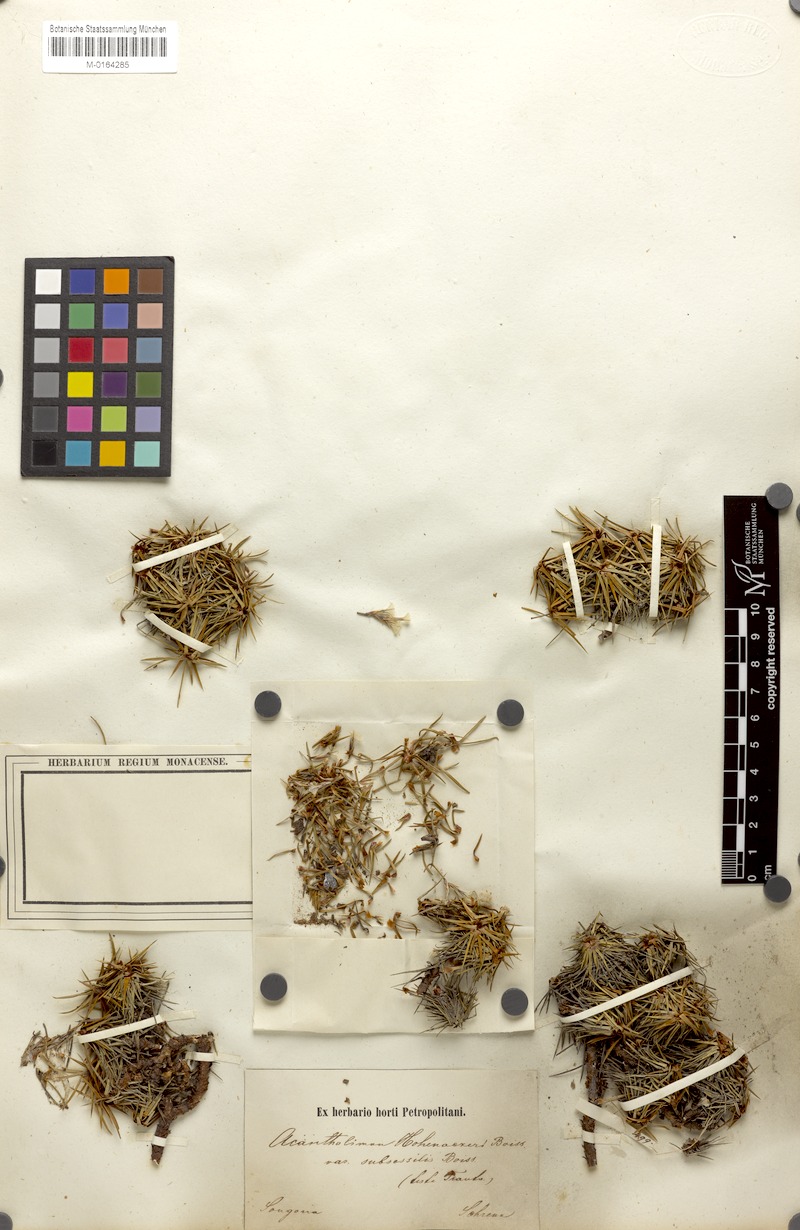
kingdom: Plantae
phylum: Tracheophyta
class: Magnoliopsida
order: Caryophyllales
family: Plumbaginaceae
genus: Acantholimon
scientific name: Acantholimon hohenackeri
